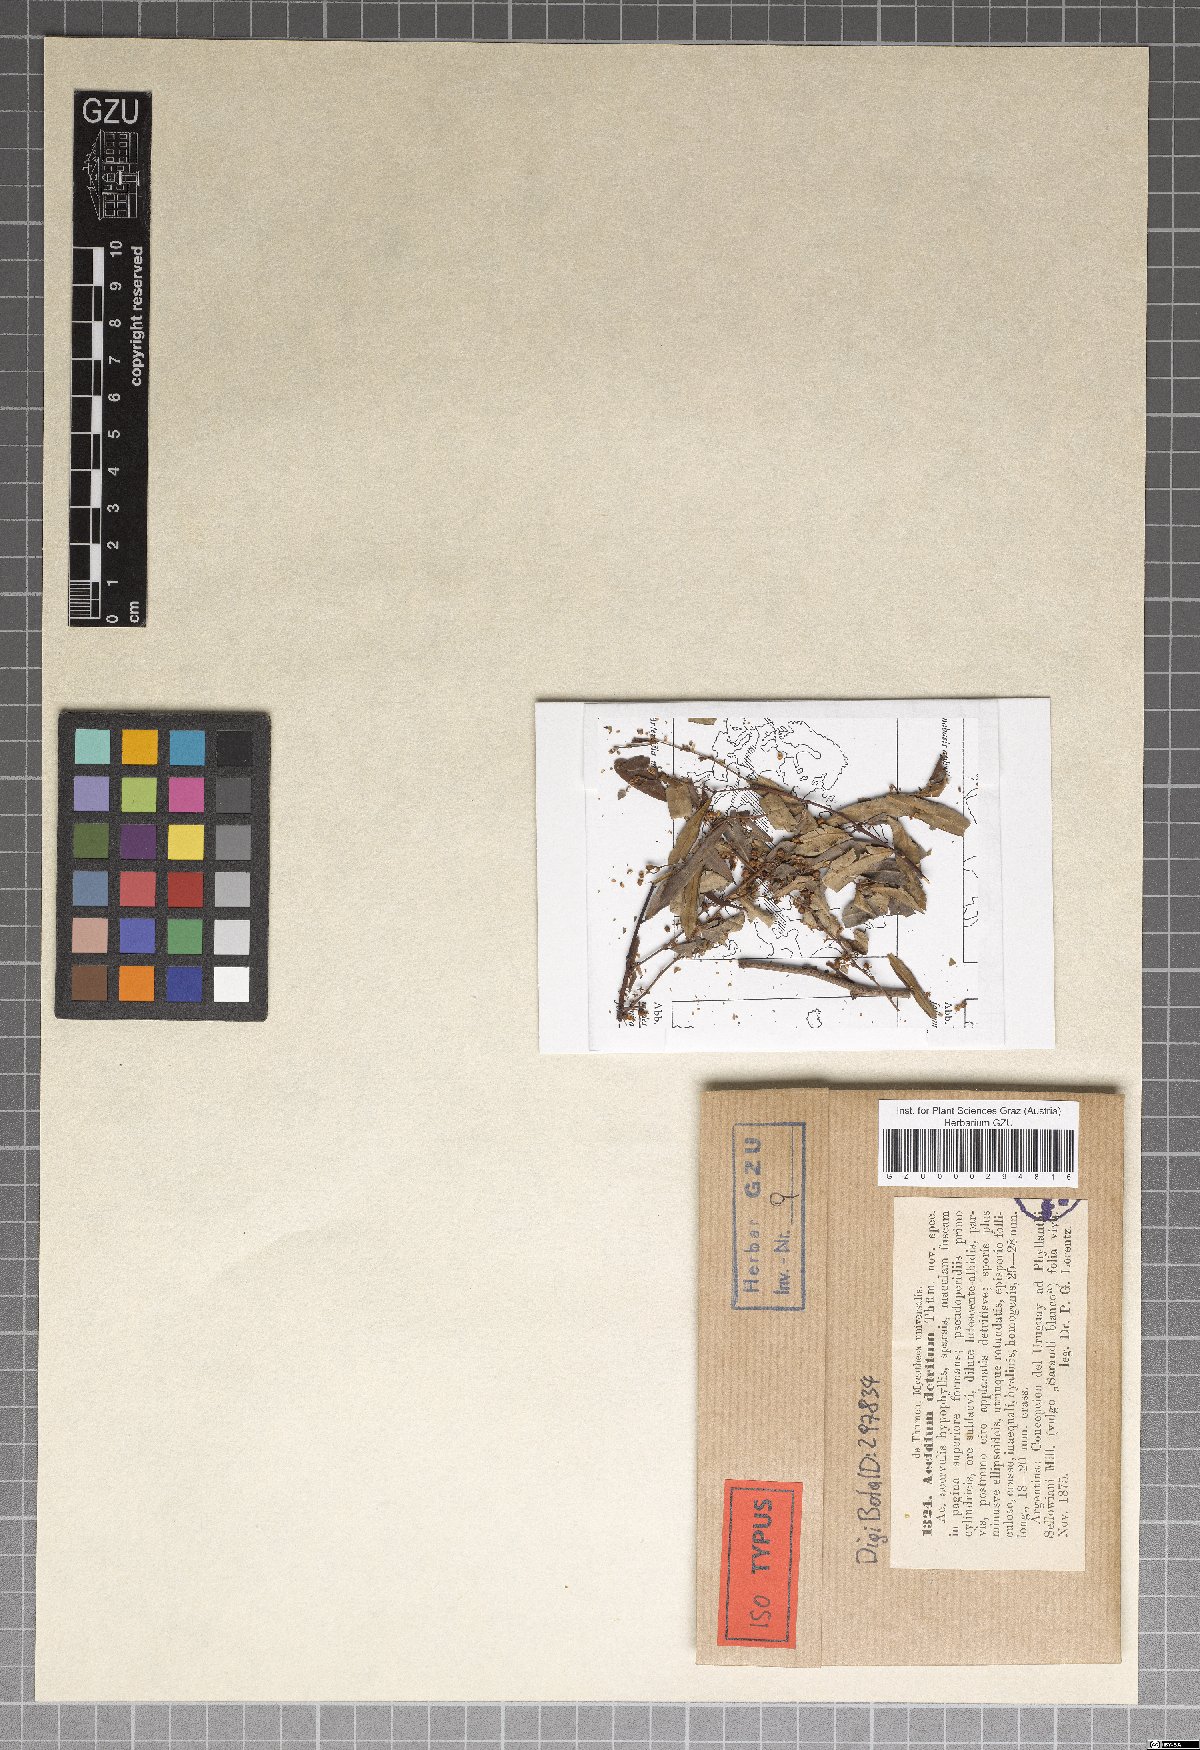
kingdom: Fungi
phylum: Basidiomycota
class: Pucciniomycetes
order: Pucciniales
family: Pucciniaceae
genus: Aecidium
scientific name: Aecidium
